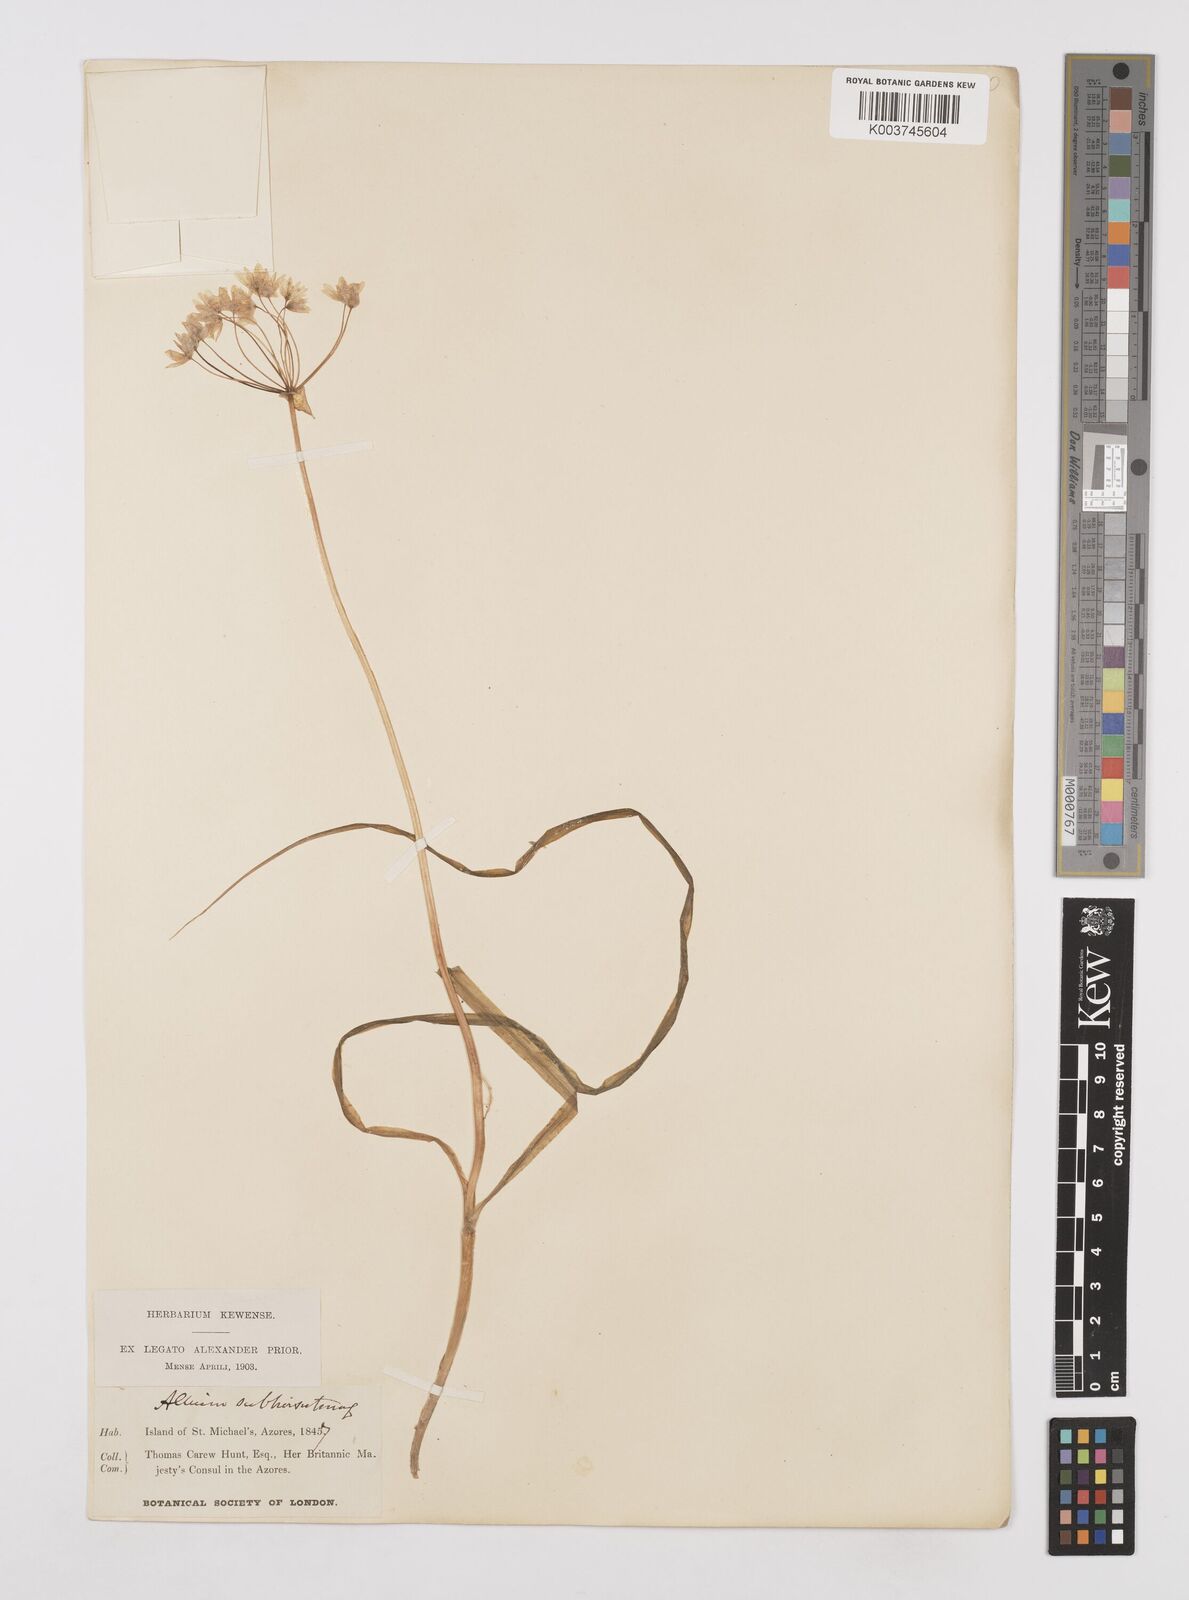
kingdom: Plantae
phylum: Tracheophyta
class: Liliopsida
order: Asparagales
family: Amaryllidaceae
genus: Allium
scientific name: Allium subvillosum
